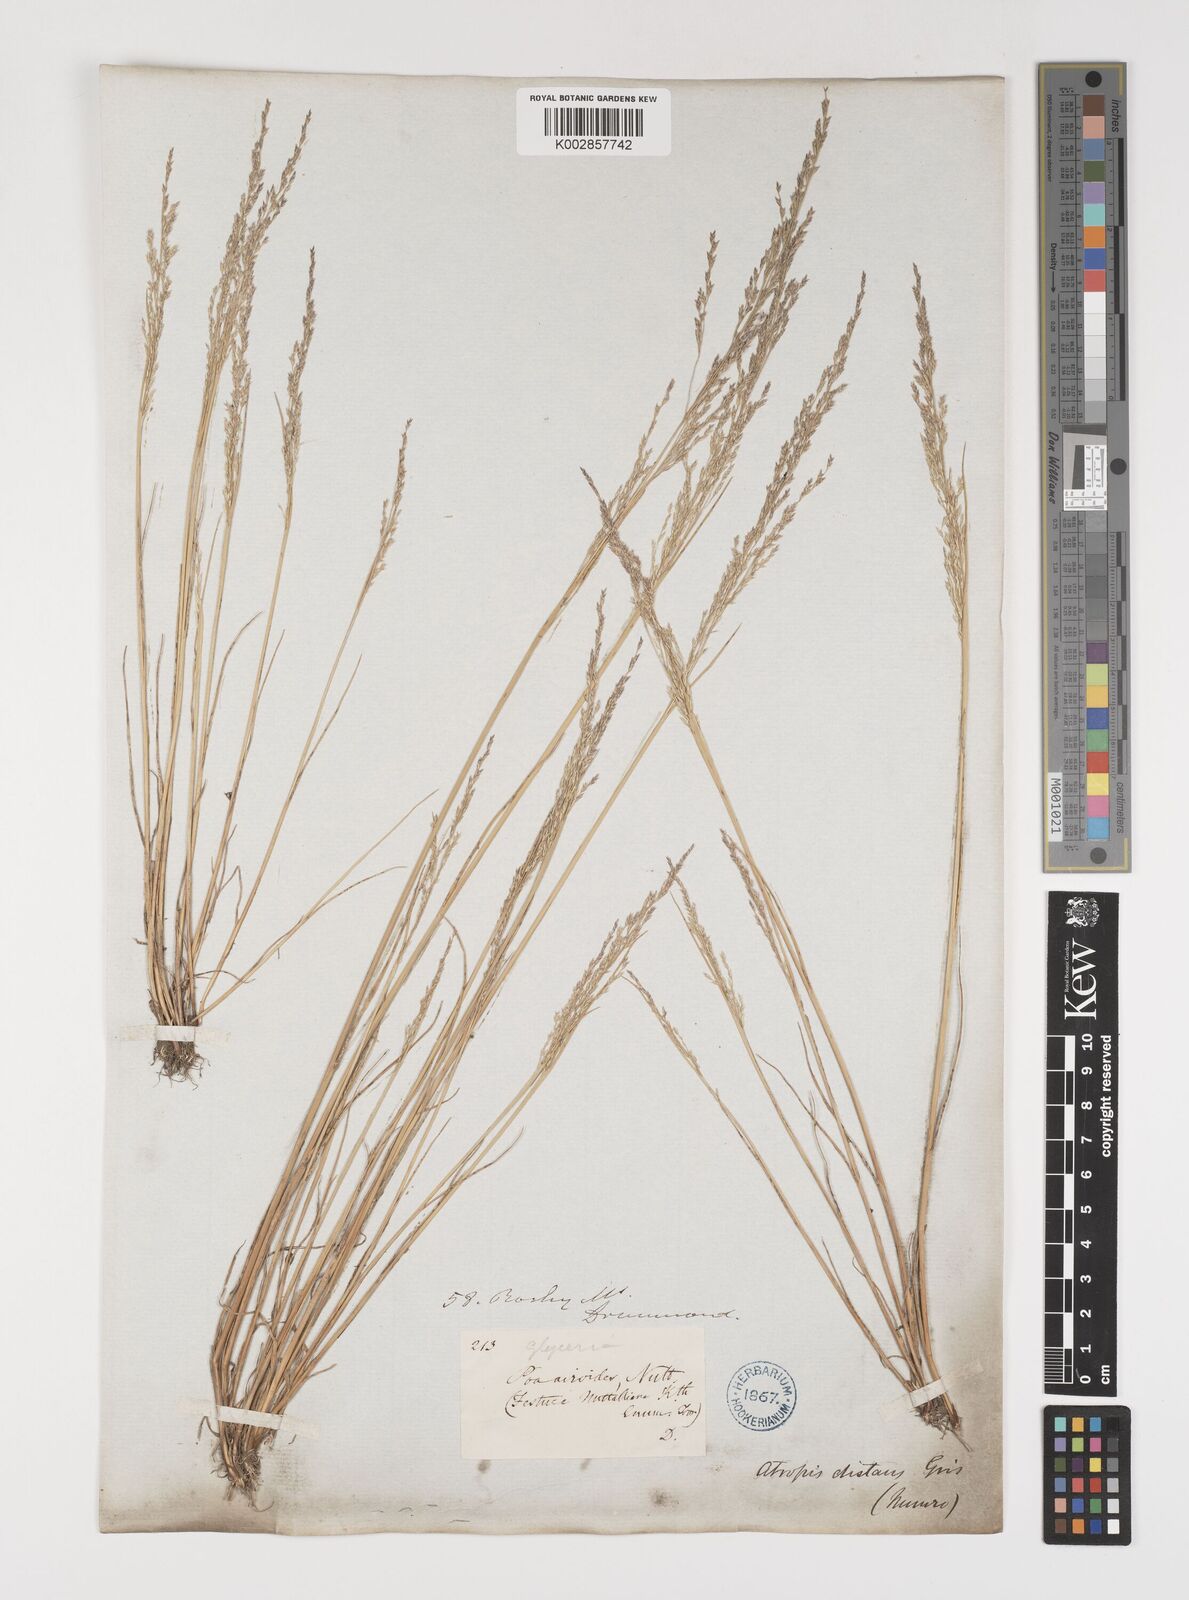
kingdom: Plantae
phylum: Tracheophyta
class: Liliopsida
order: Poales
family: Poaceae
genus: Puccinellia
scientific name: Puccinellia nuttalliana
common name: Nuttall's alkali grass
